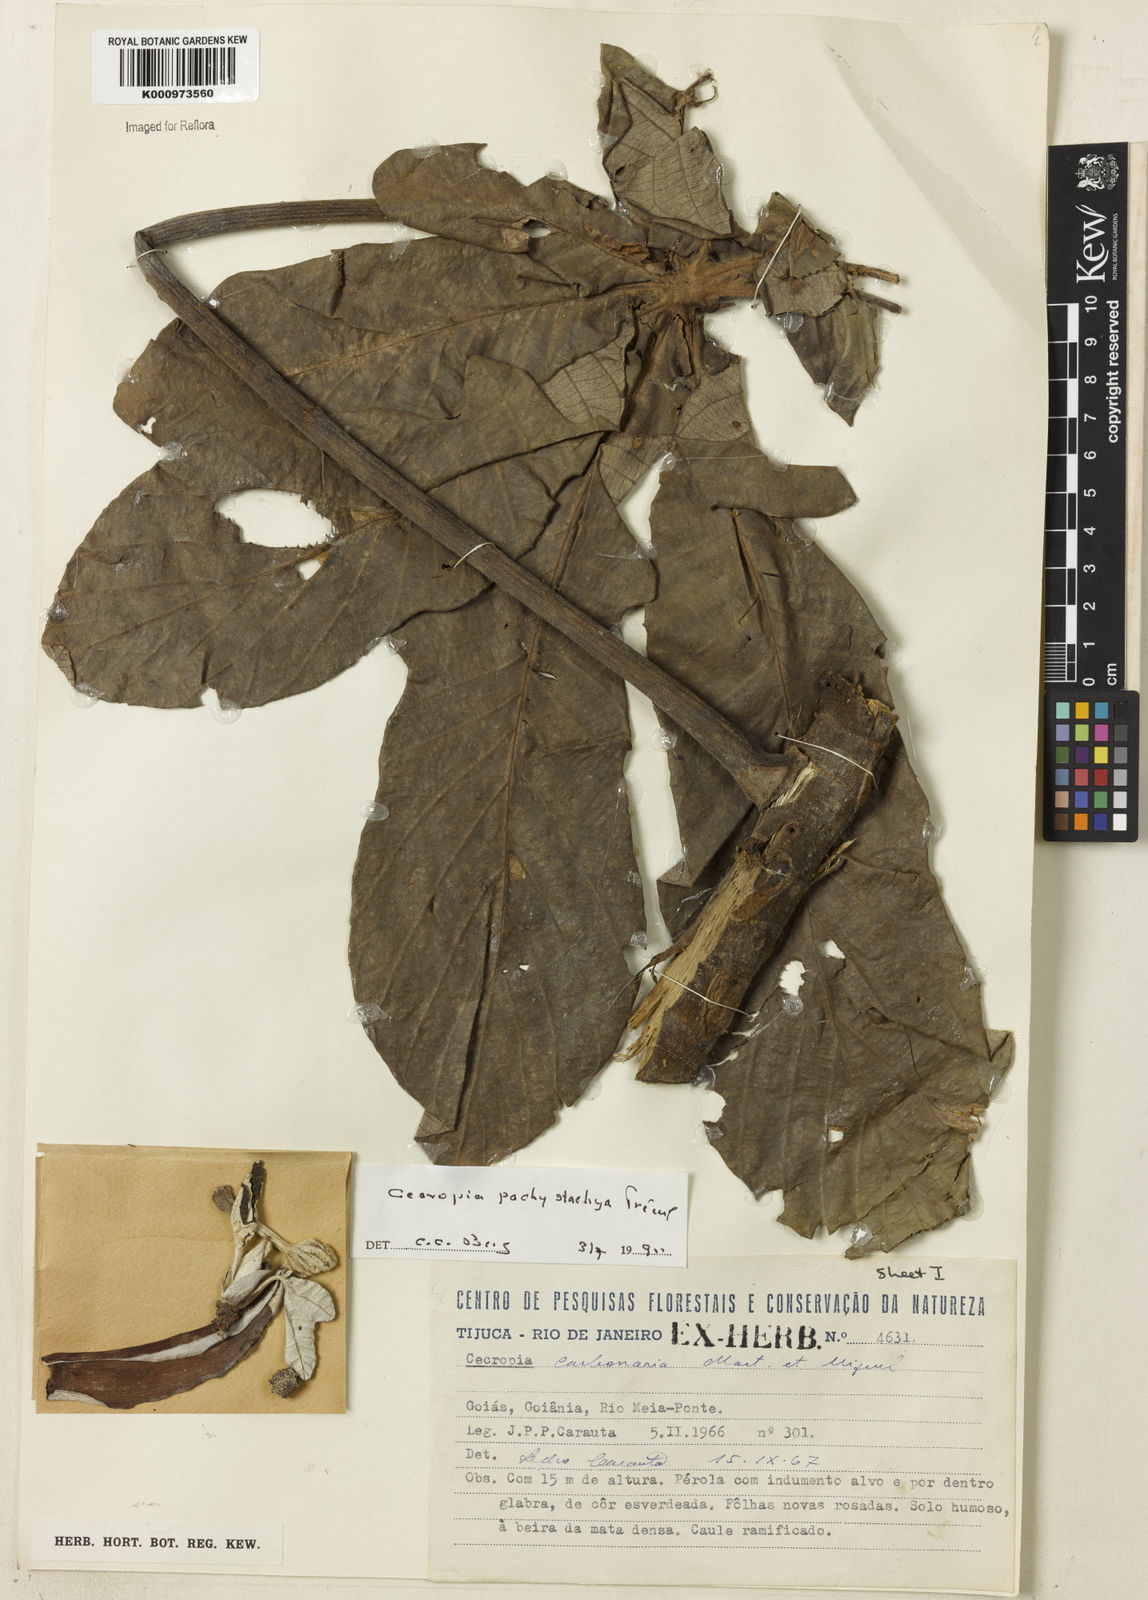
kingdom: Plantae
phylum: Tracheophyta
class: Magnoliopsida
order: Rosales
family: Urticaceae
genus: Cecropia
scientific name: Cecropia
